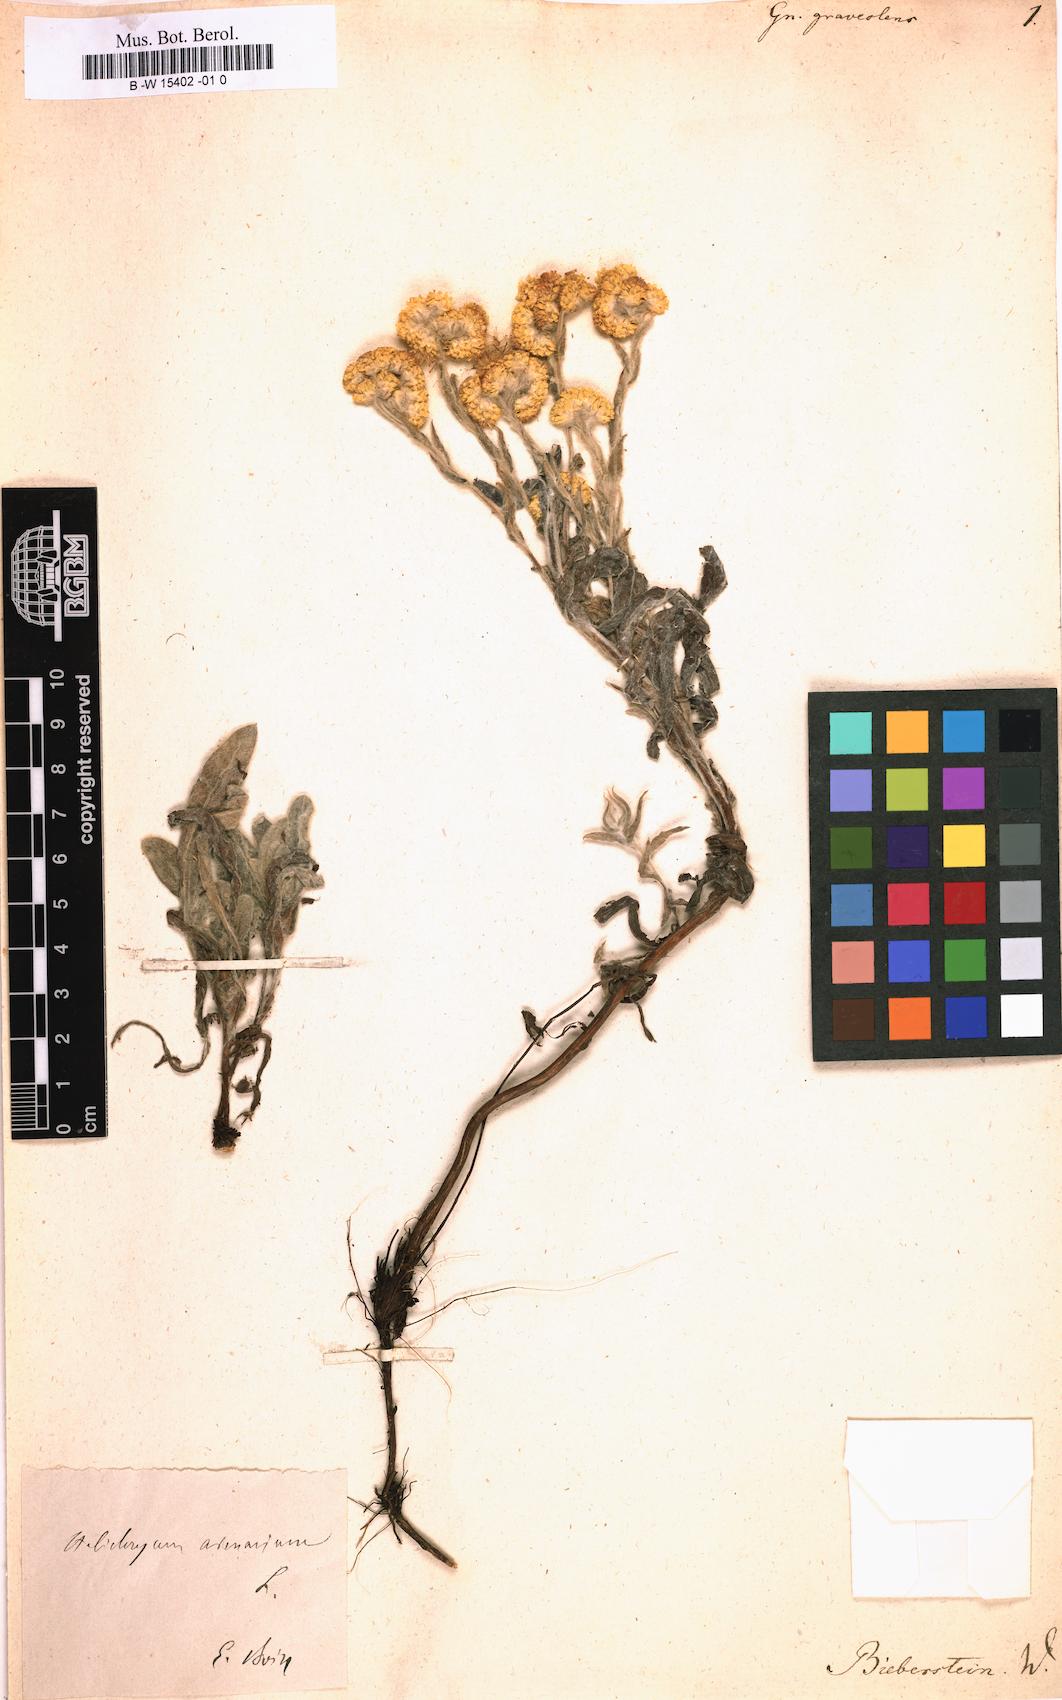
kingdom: Plantae
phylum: Tracheophyta
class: Magnoliopsida
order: Asterales
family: Asteraceae
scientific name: Asteraceae
